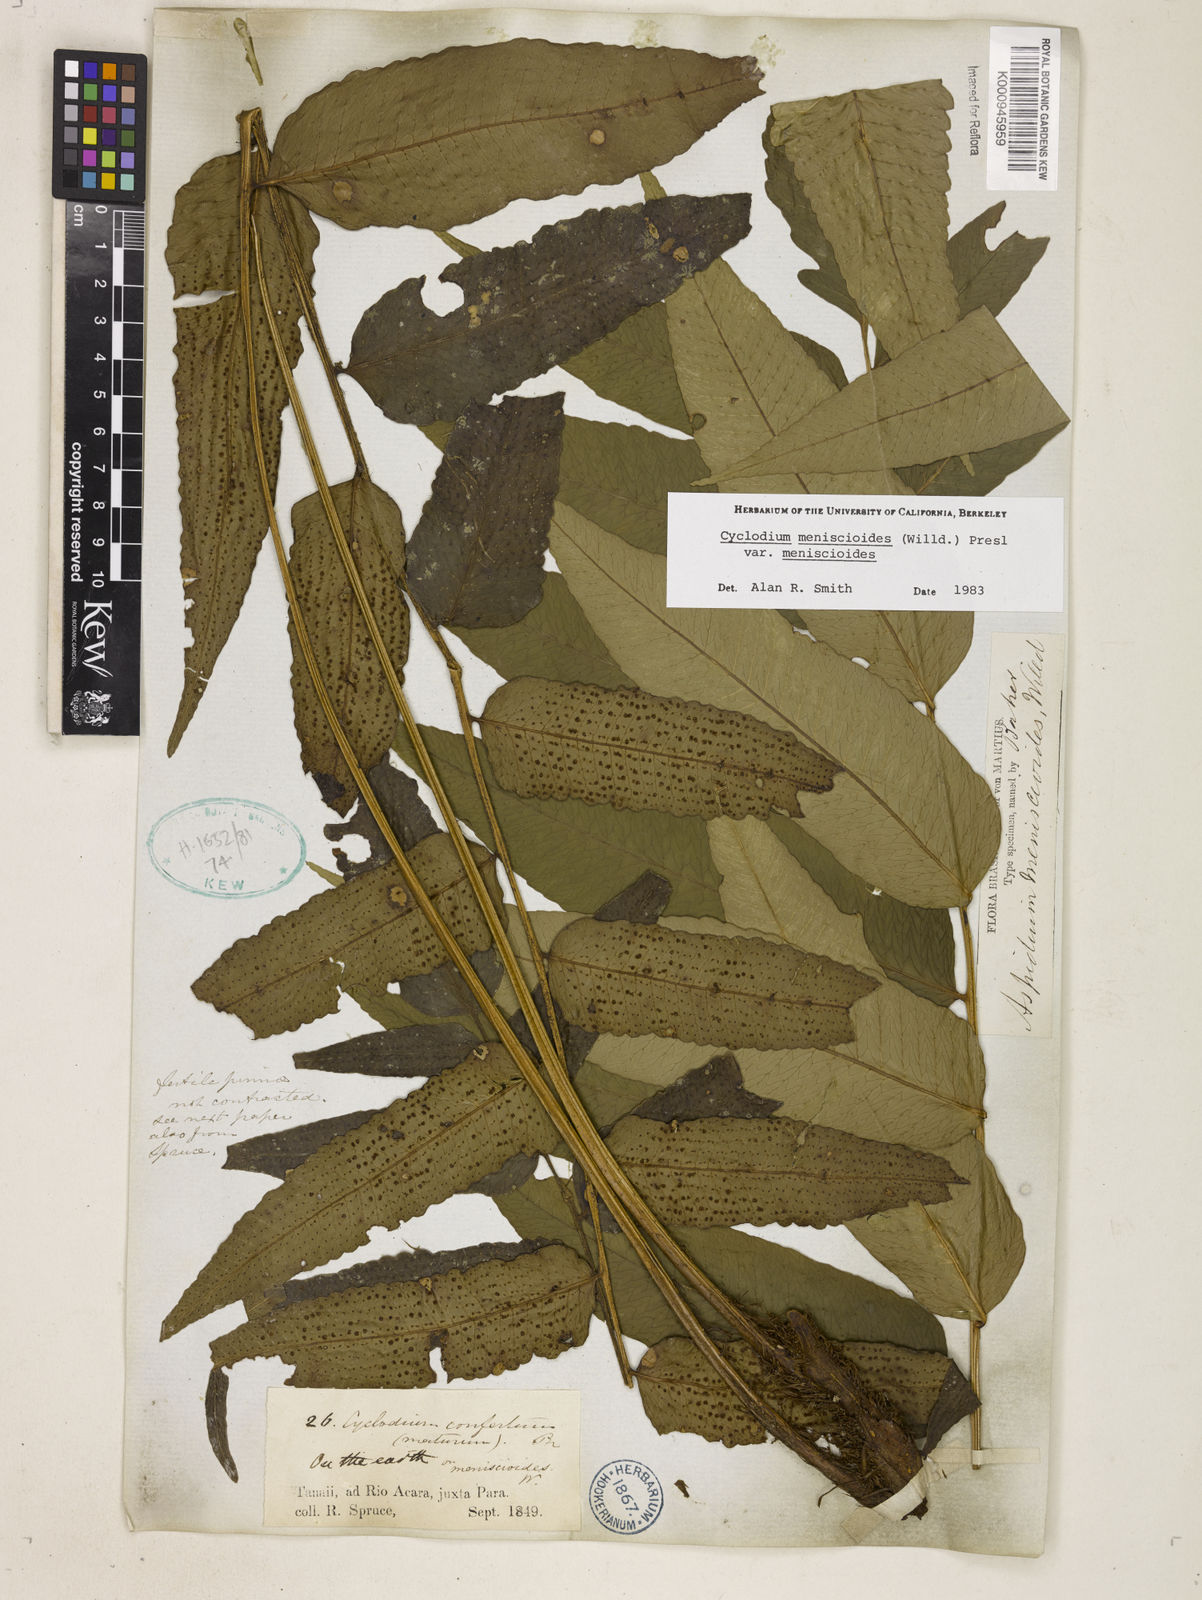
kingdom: Plantae
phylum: Tracheophyta
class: Polypodiopsida
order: Polypodiales
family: Dryopteridaceae
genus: Cyclodium
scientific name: Cyclodium meniscioides
